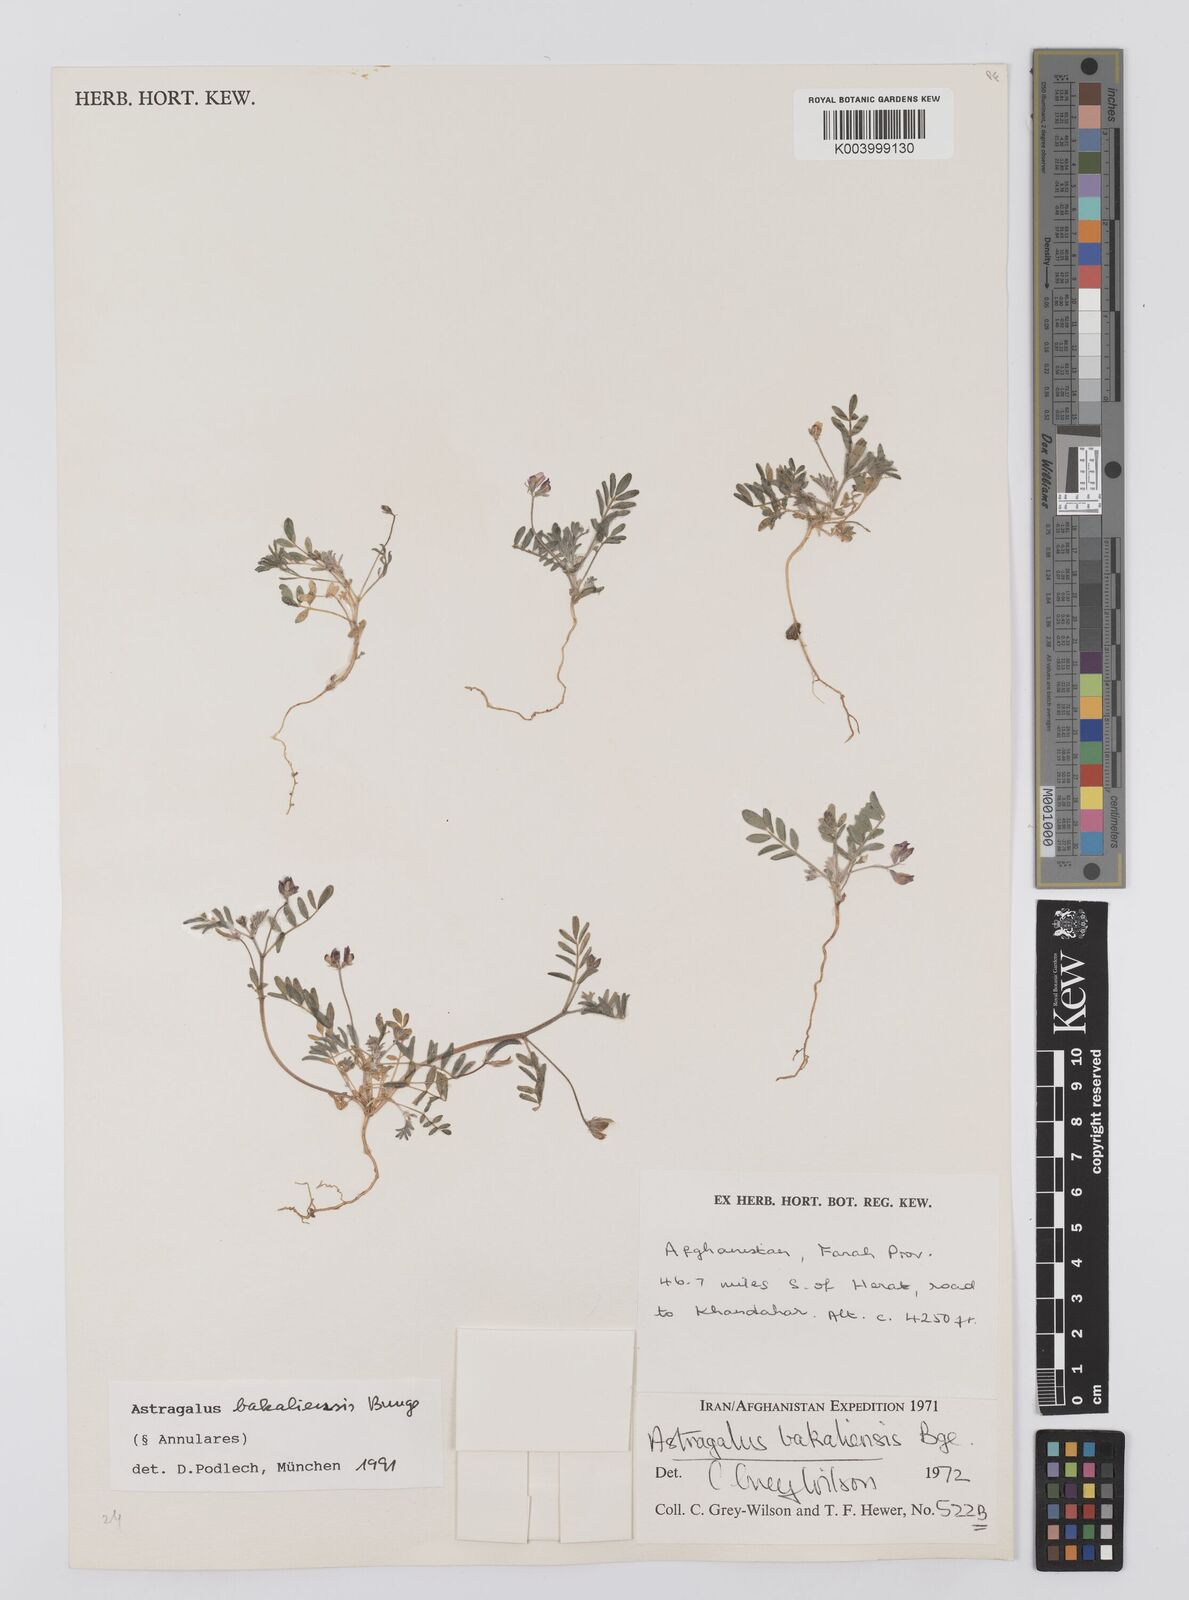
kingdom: Plantae
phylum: Tracheophyta
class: Magnoliopsida
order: Fabales
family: Fabaceae
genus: Astragalus
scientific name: Astragalus bakaliensis
